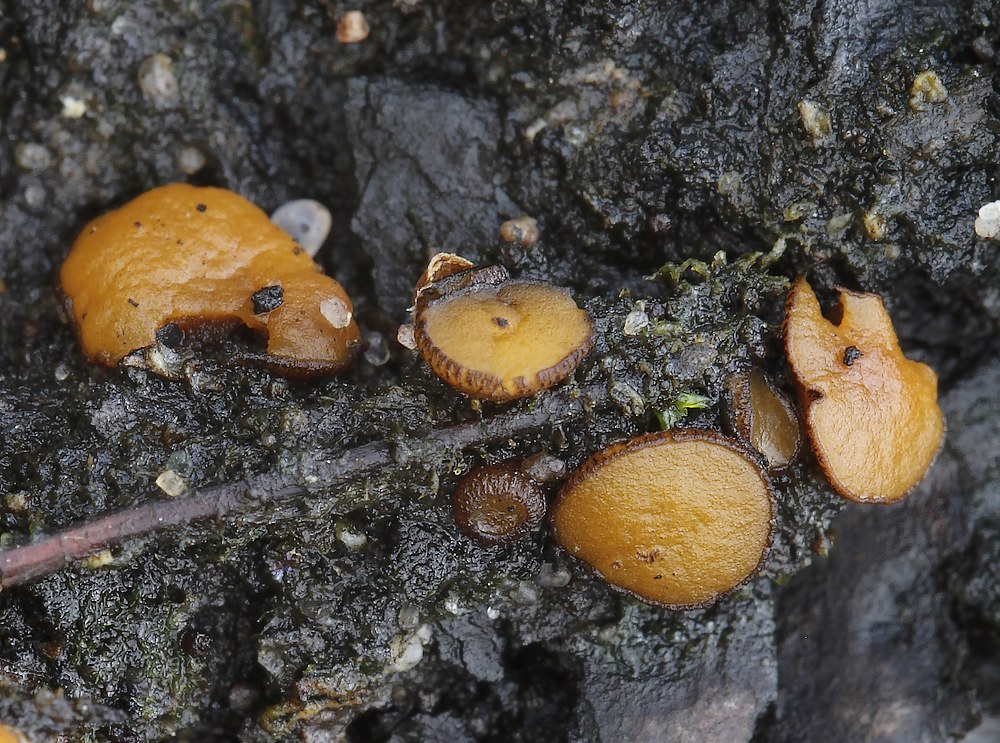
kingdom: Fungi
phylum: Ascomycota
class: Pezizomycetes
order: Pezizales
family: Pyronemataceae
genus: Anthracobia
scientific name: Anthracobia maurilabra
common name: brunorange ildbæger
